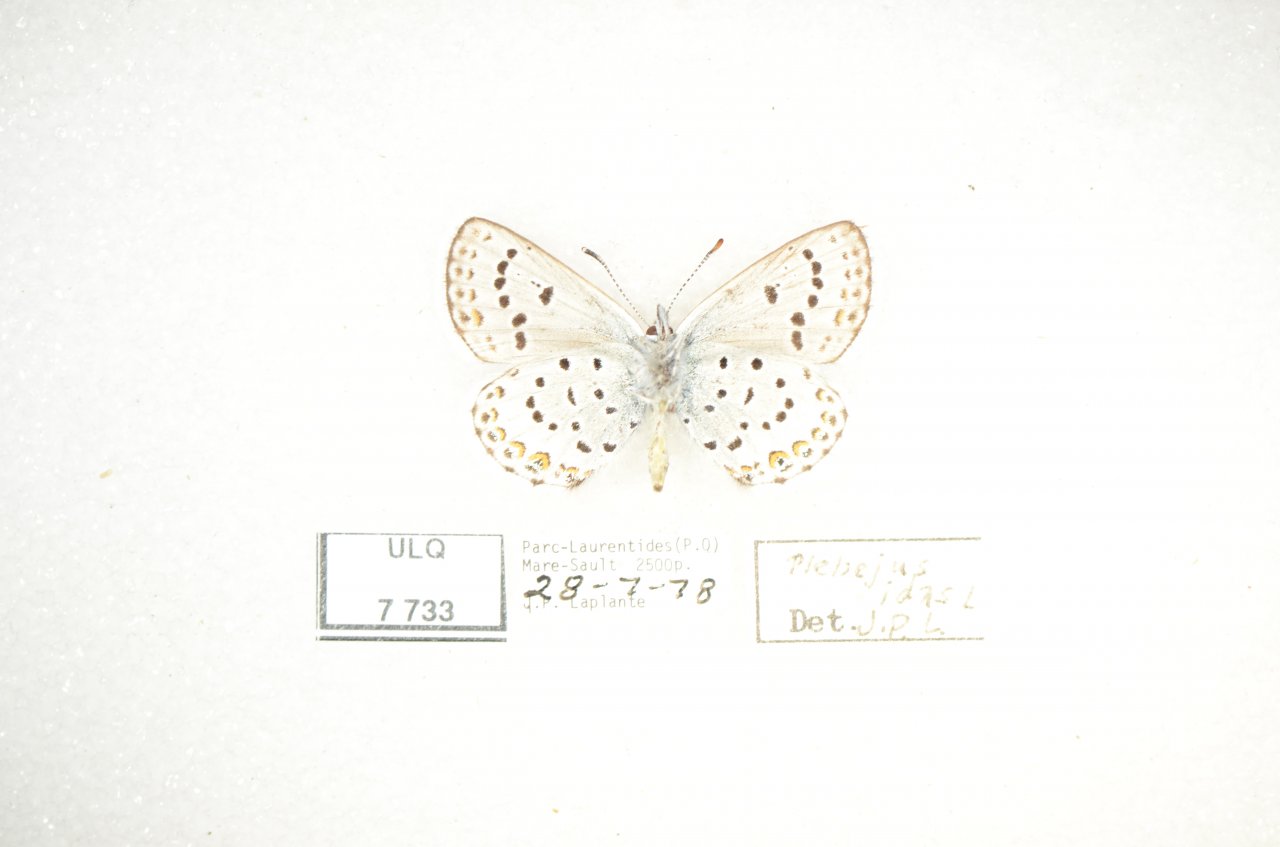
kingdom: Animalia
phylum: Arthropoda
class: Insecta
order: Lepidoptera
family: Lycaenidae
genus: Lycaeides
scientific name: Lycaeides idas
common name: Northern Blue
